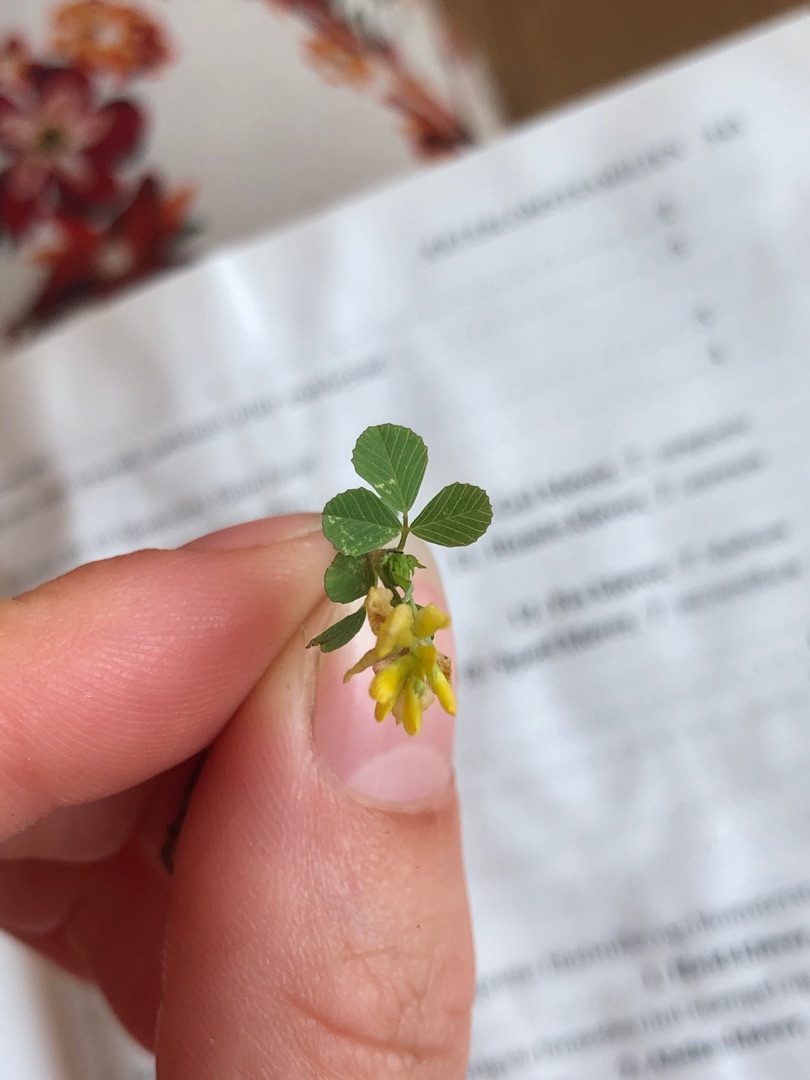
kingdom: Plantae
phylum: Tracheophyta
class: Magnoliopsida
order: Fabales
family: Fabaceae
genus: Trifolium
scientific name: Trifolium campestre
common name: Gul kløver
